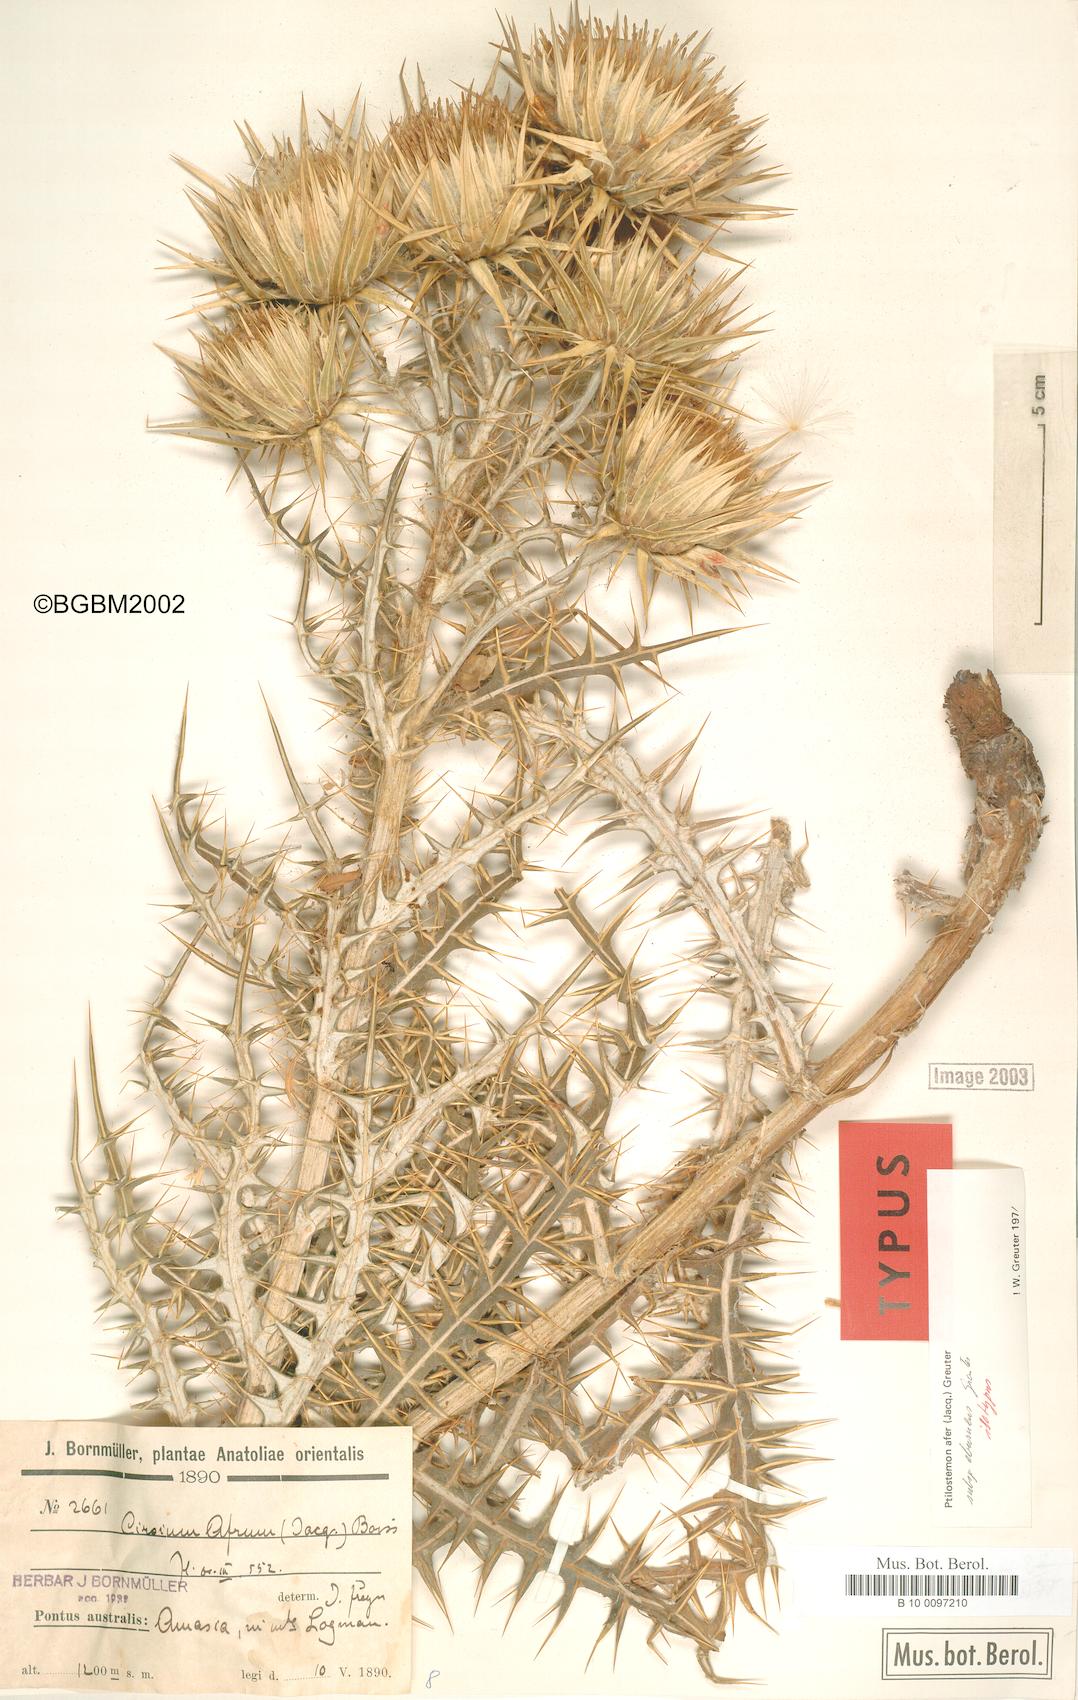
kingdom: Plantae
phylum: Tracheophyta
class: Magnoliopsida
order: Asterales
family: Asteraceae
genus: Ptilostemon
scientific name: Ptilostemon afer
